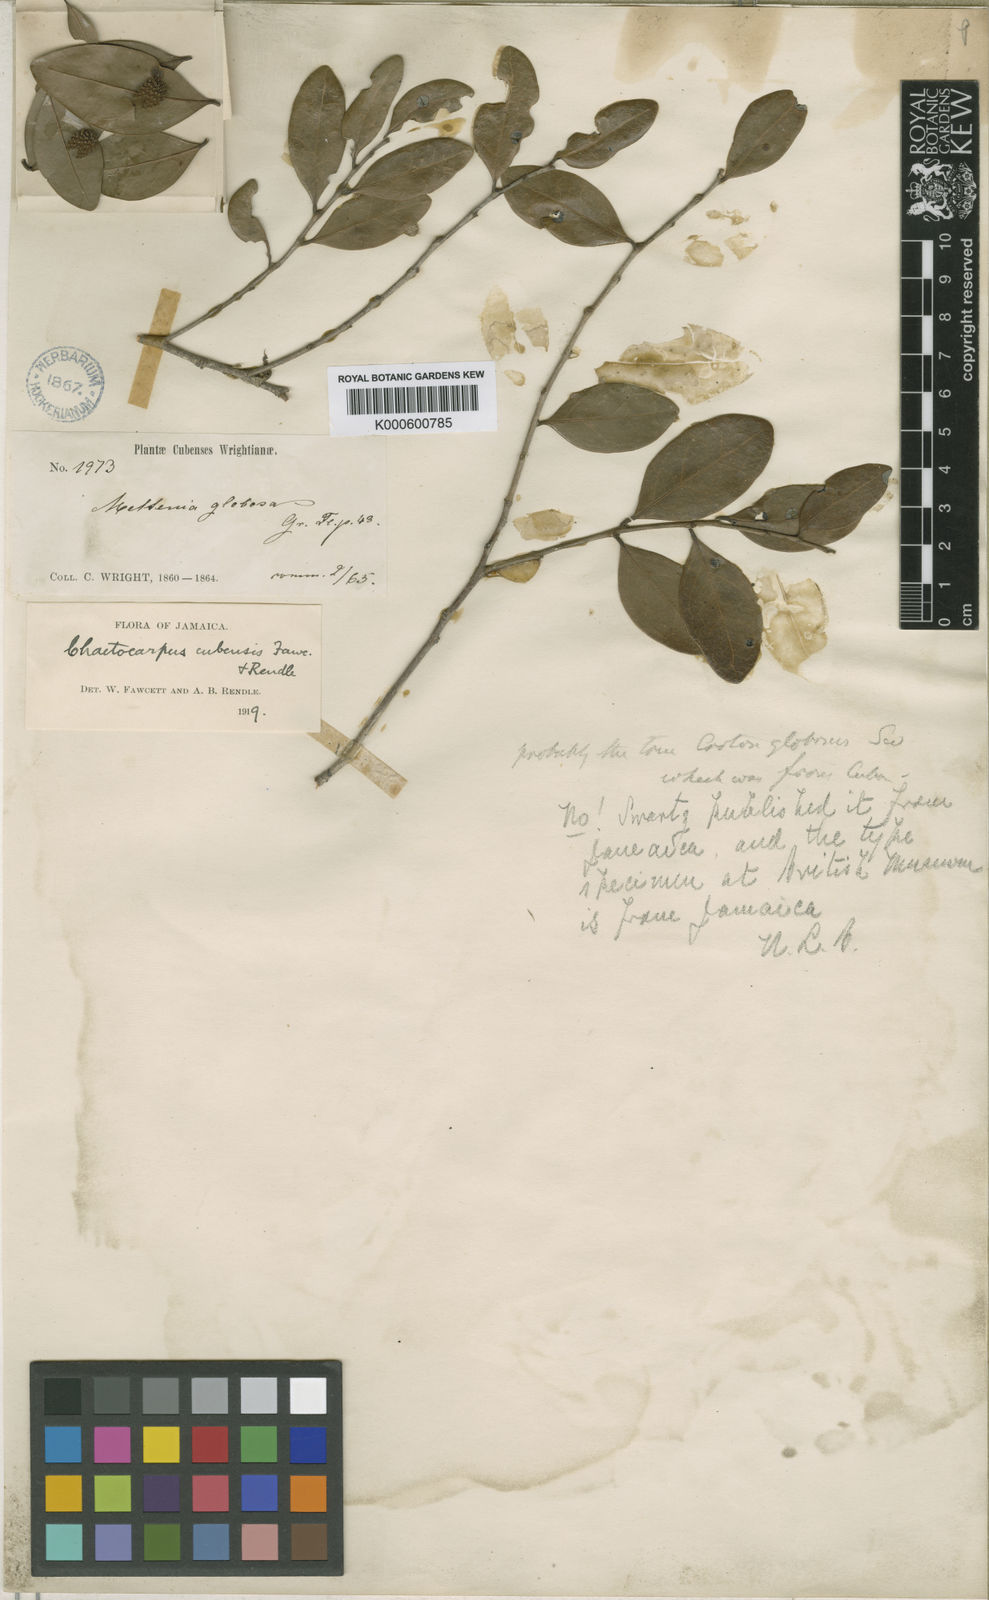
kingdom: Plantae
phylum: Tracheophyta
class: Magnoliopsida
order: Malpighiales
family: Peraceae
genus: Chaetocarpus
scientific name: Chaetocarpus cubensis
